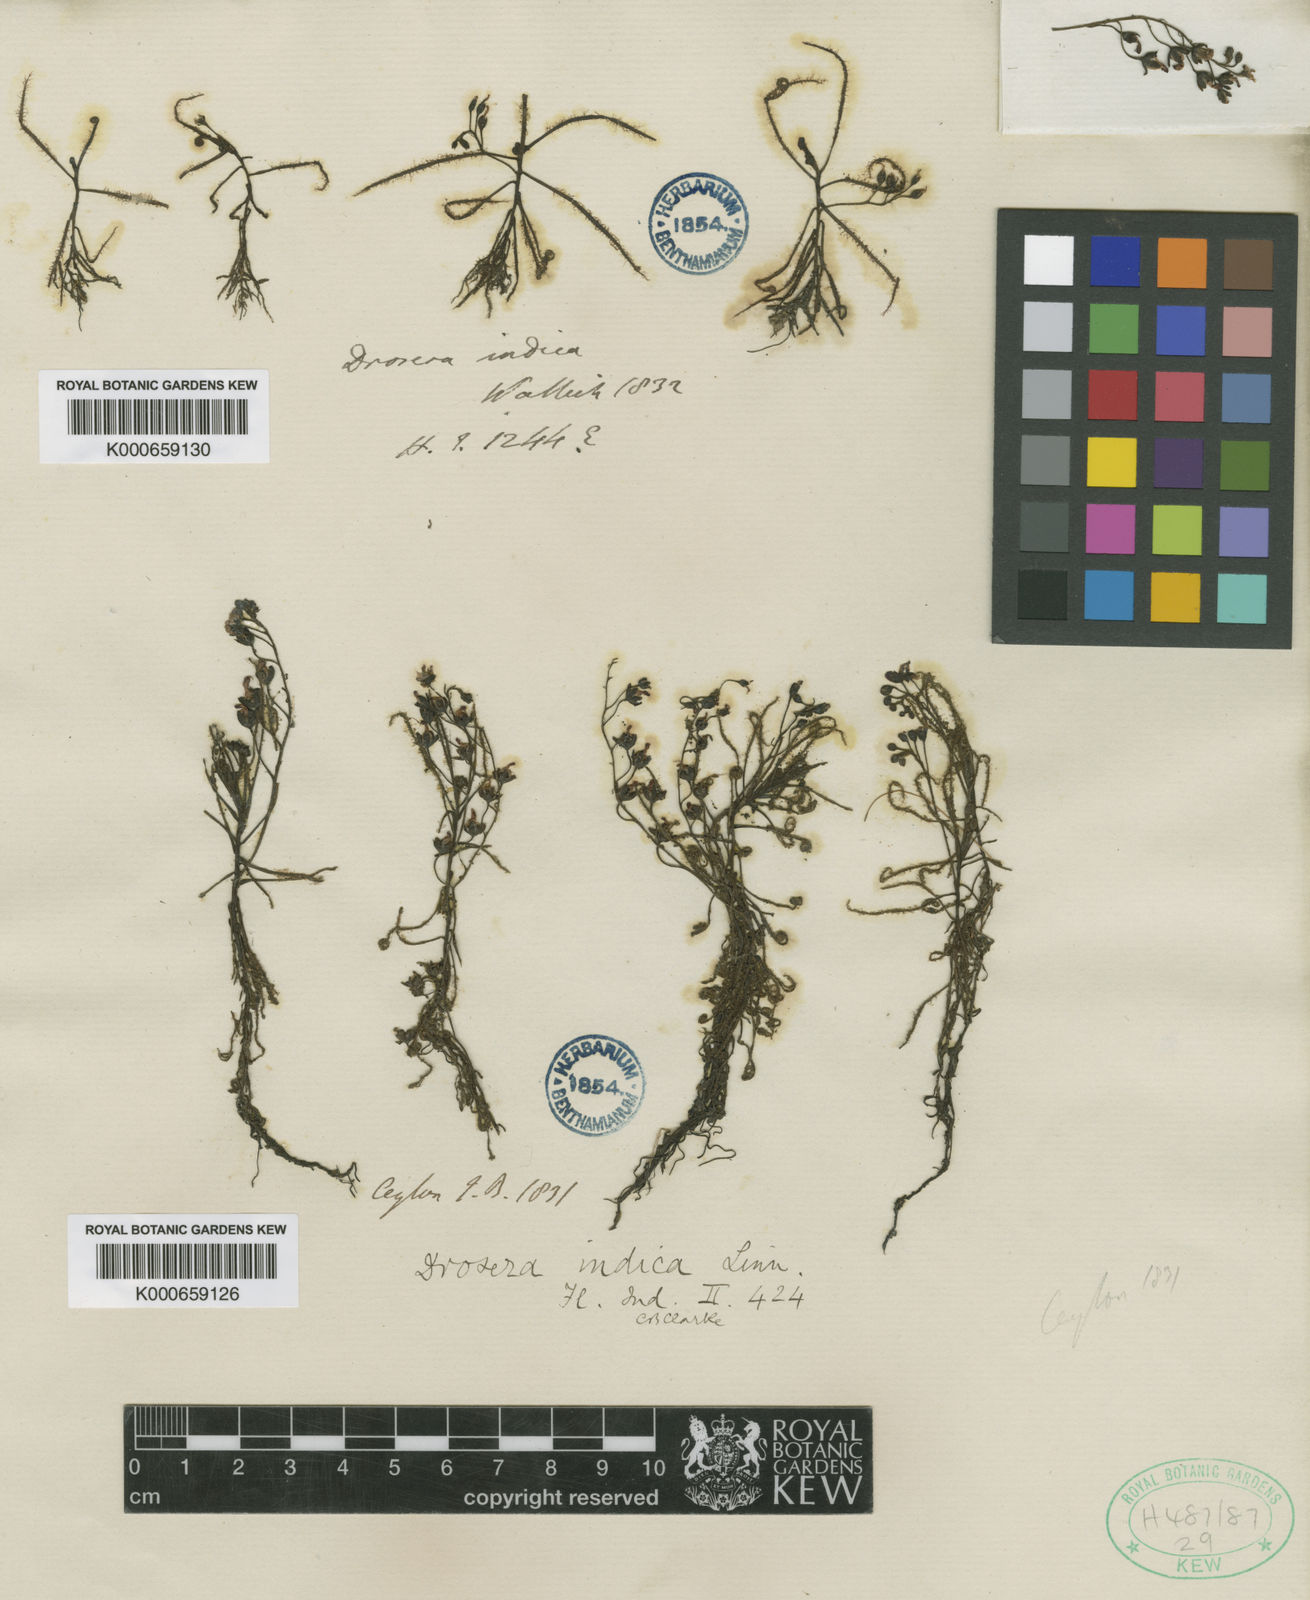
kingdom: Plantae
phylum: Tracheophyta
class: Magnoliopsida
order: Caryophyllales
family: Droseraceae
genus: Drosera
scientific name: Drosera indica
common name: Indian sundew
